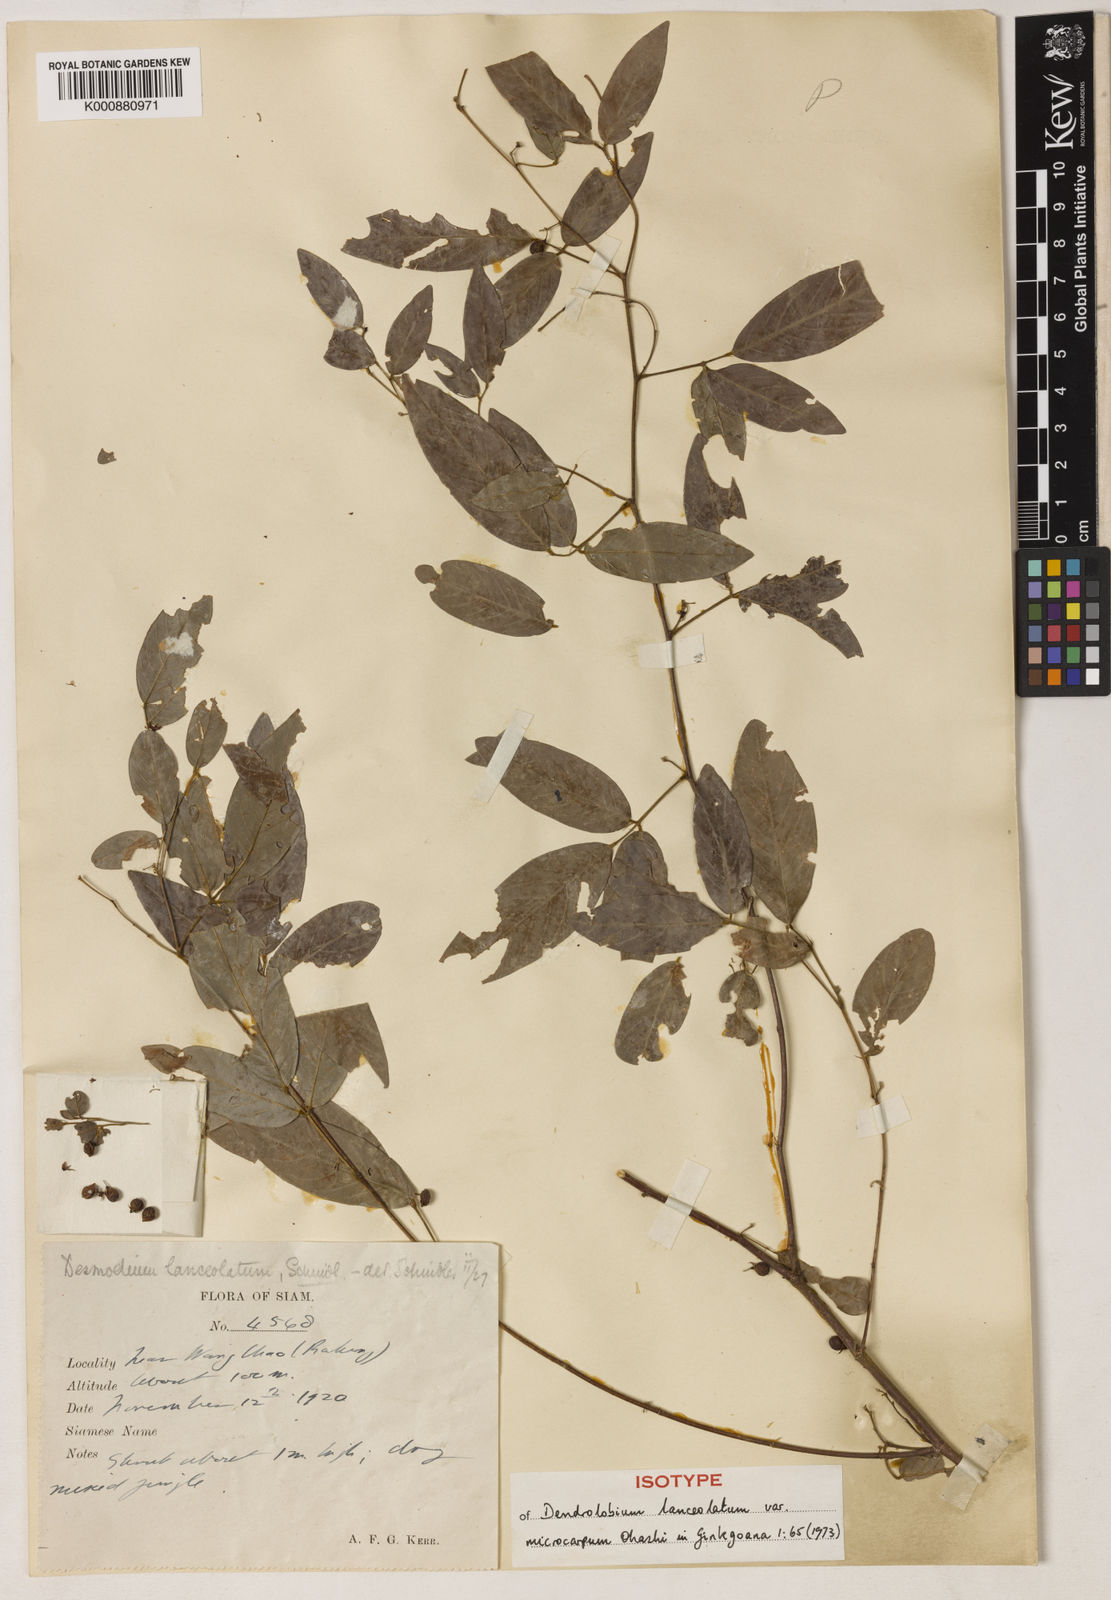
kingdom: Plantae
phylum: Tracheophyta
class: Magnoliopsida
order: Fabales
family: Fabaceae
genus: Dendrolobium
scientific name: Dendrolobium lanceolatum
